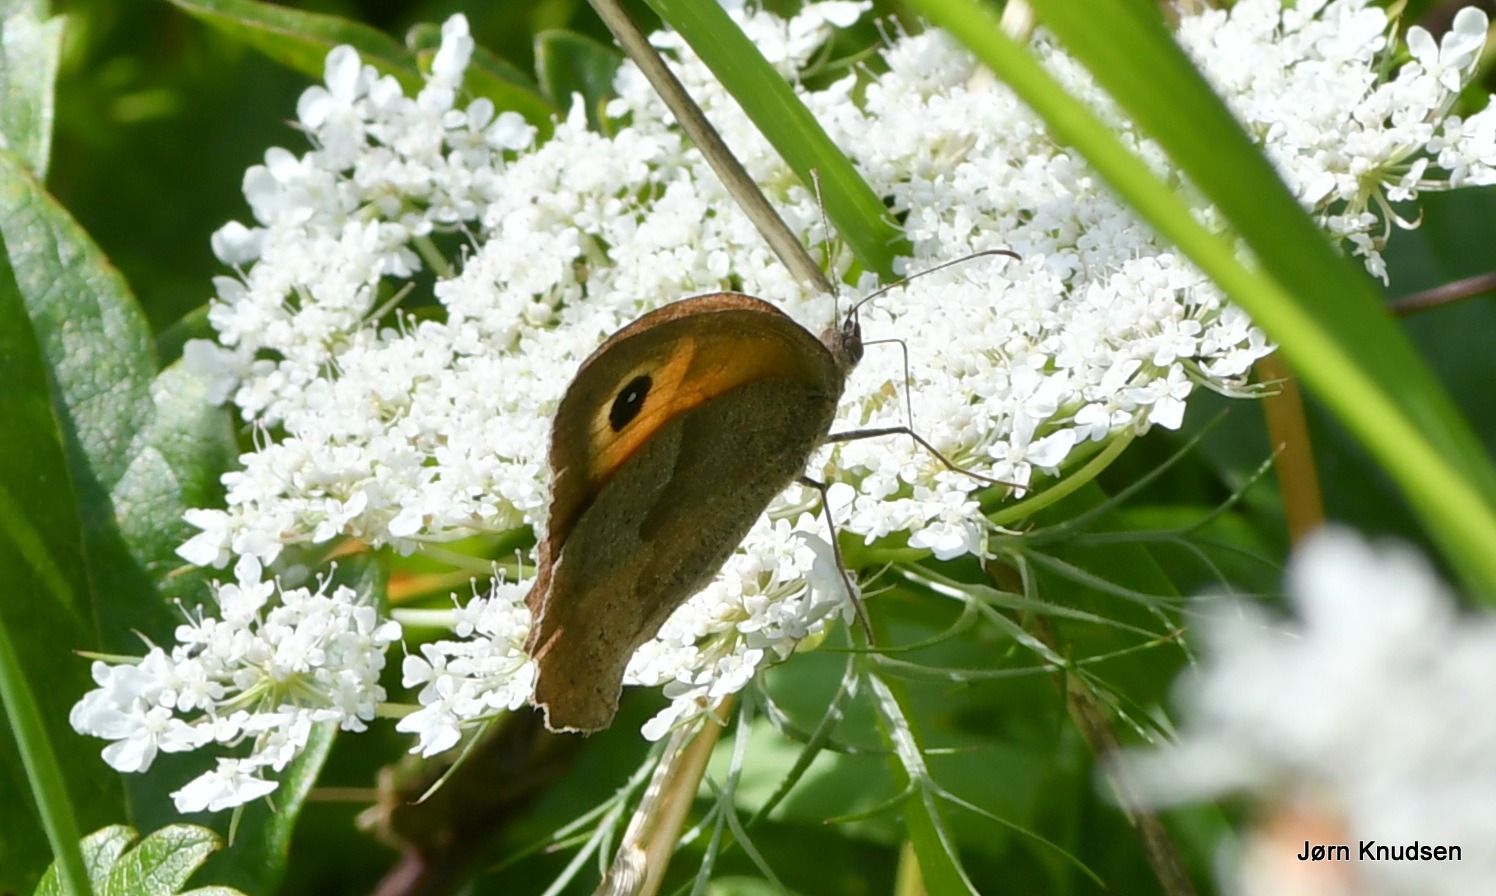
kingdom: Animalia
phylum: Arthropoda
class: Insecta
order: Lepidoptera
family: Nymphalidae
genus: Maniola
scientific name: Maniola jurtina
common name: Græsrandøje
